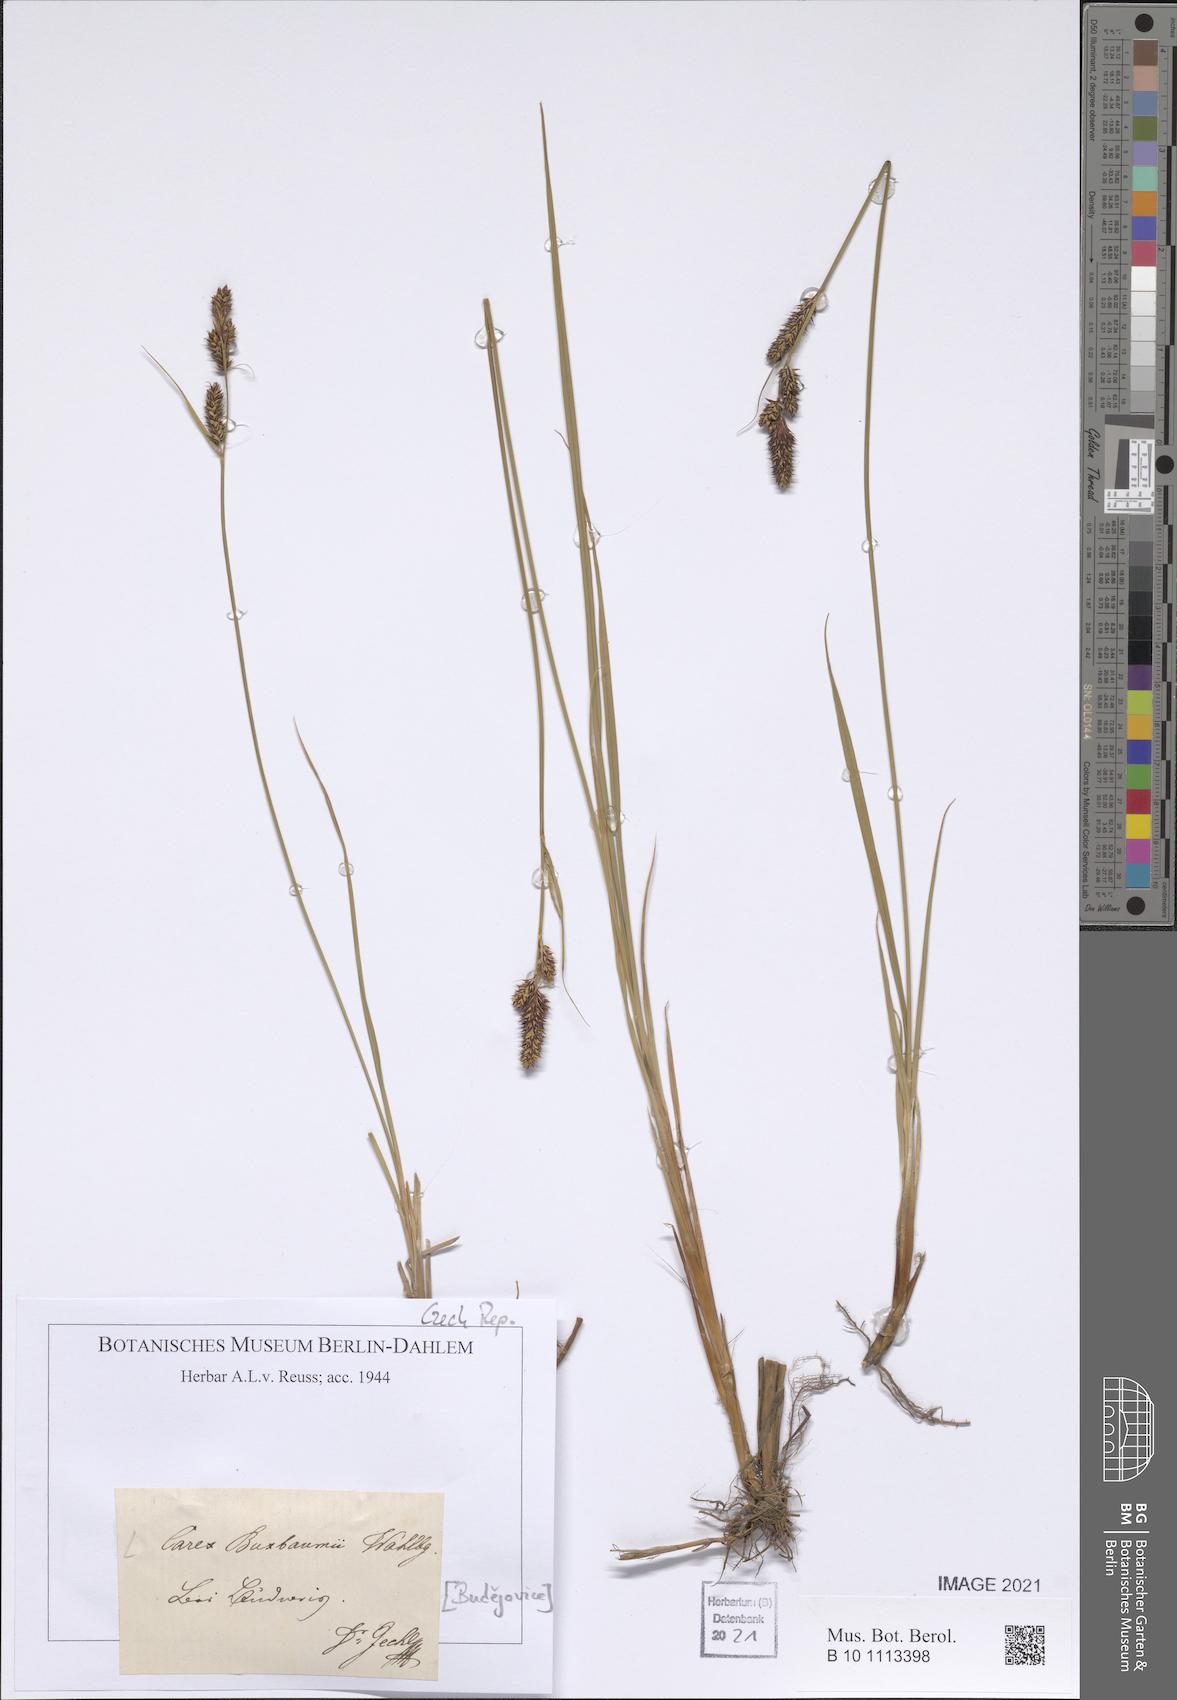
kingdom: Plantae
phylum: Tracheophyta
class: Liliopsida
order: Poales
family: Cyperaceae
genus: Carex
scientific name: Carex buxbaumii
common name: Club sedge
